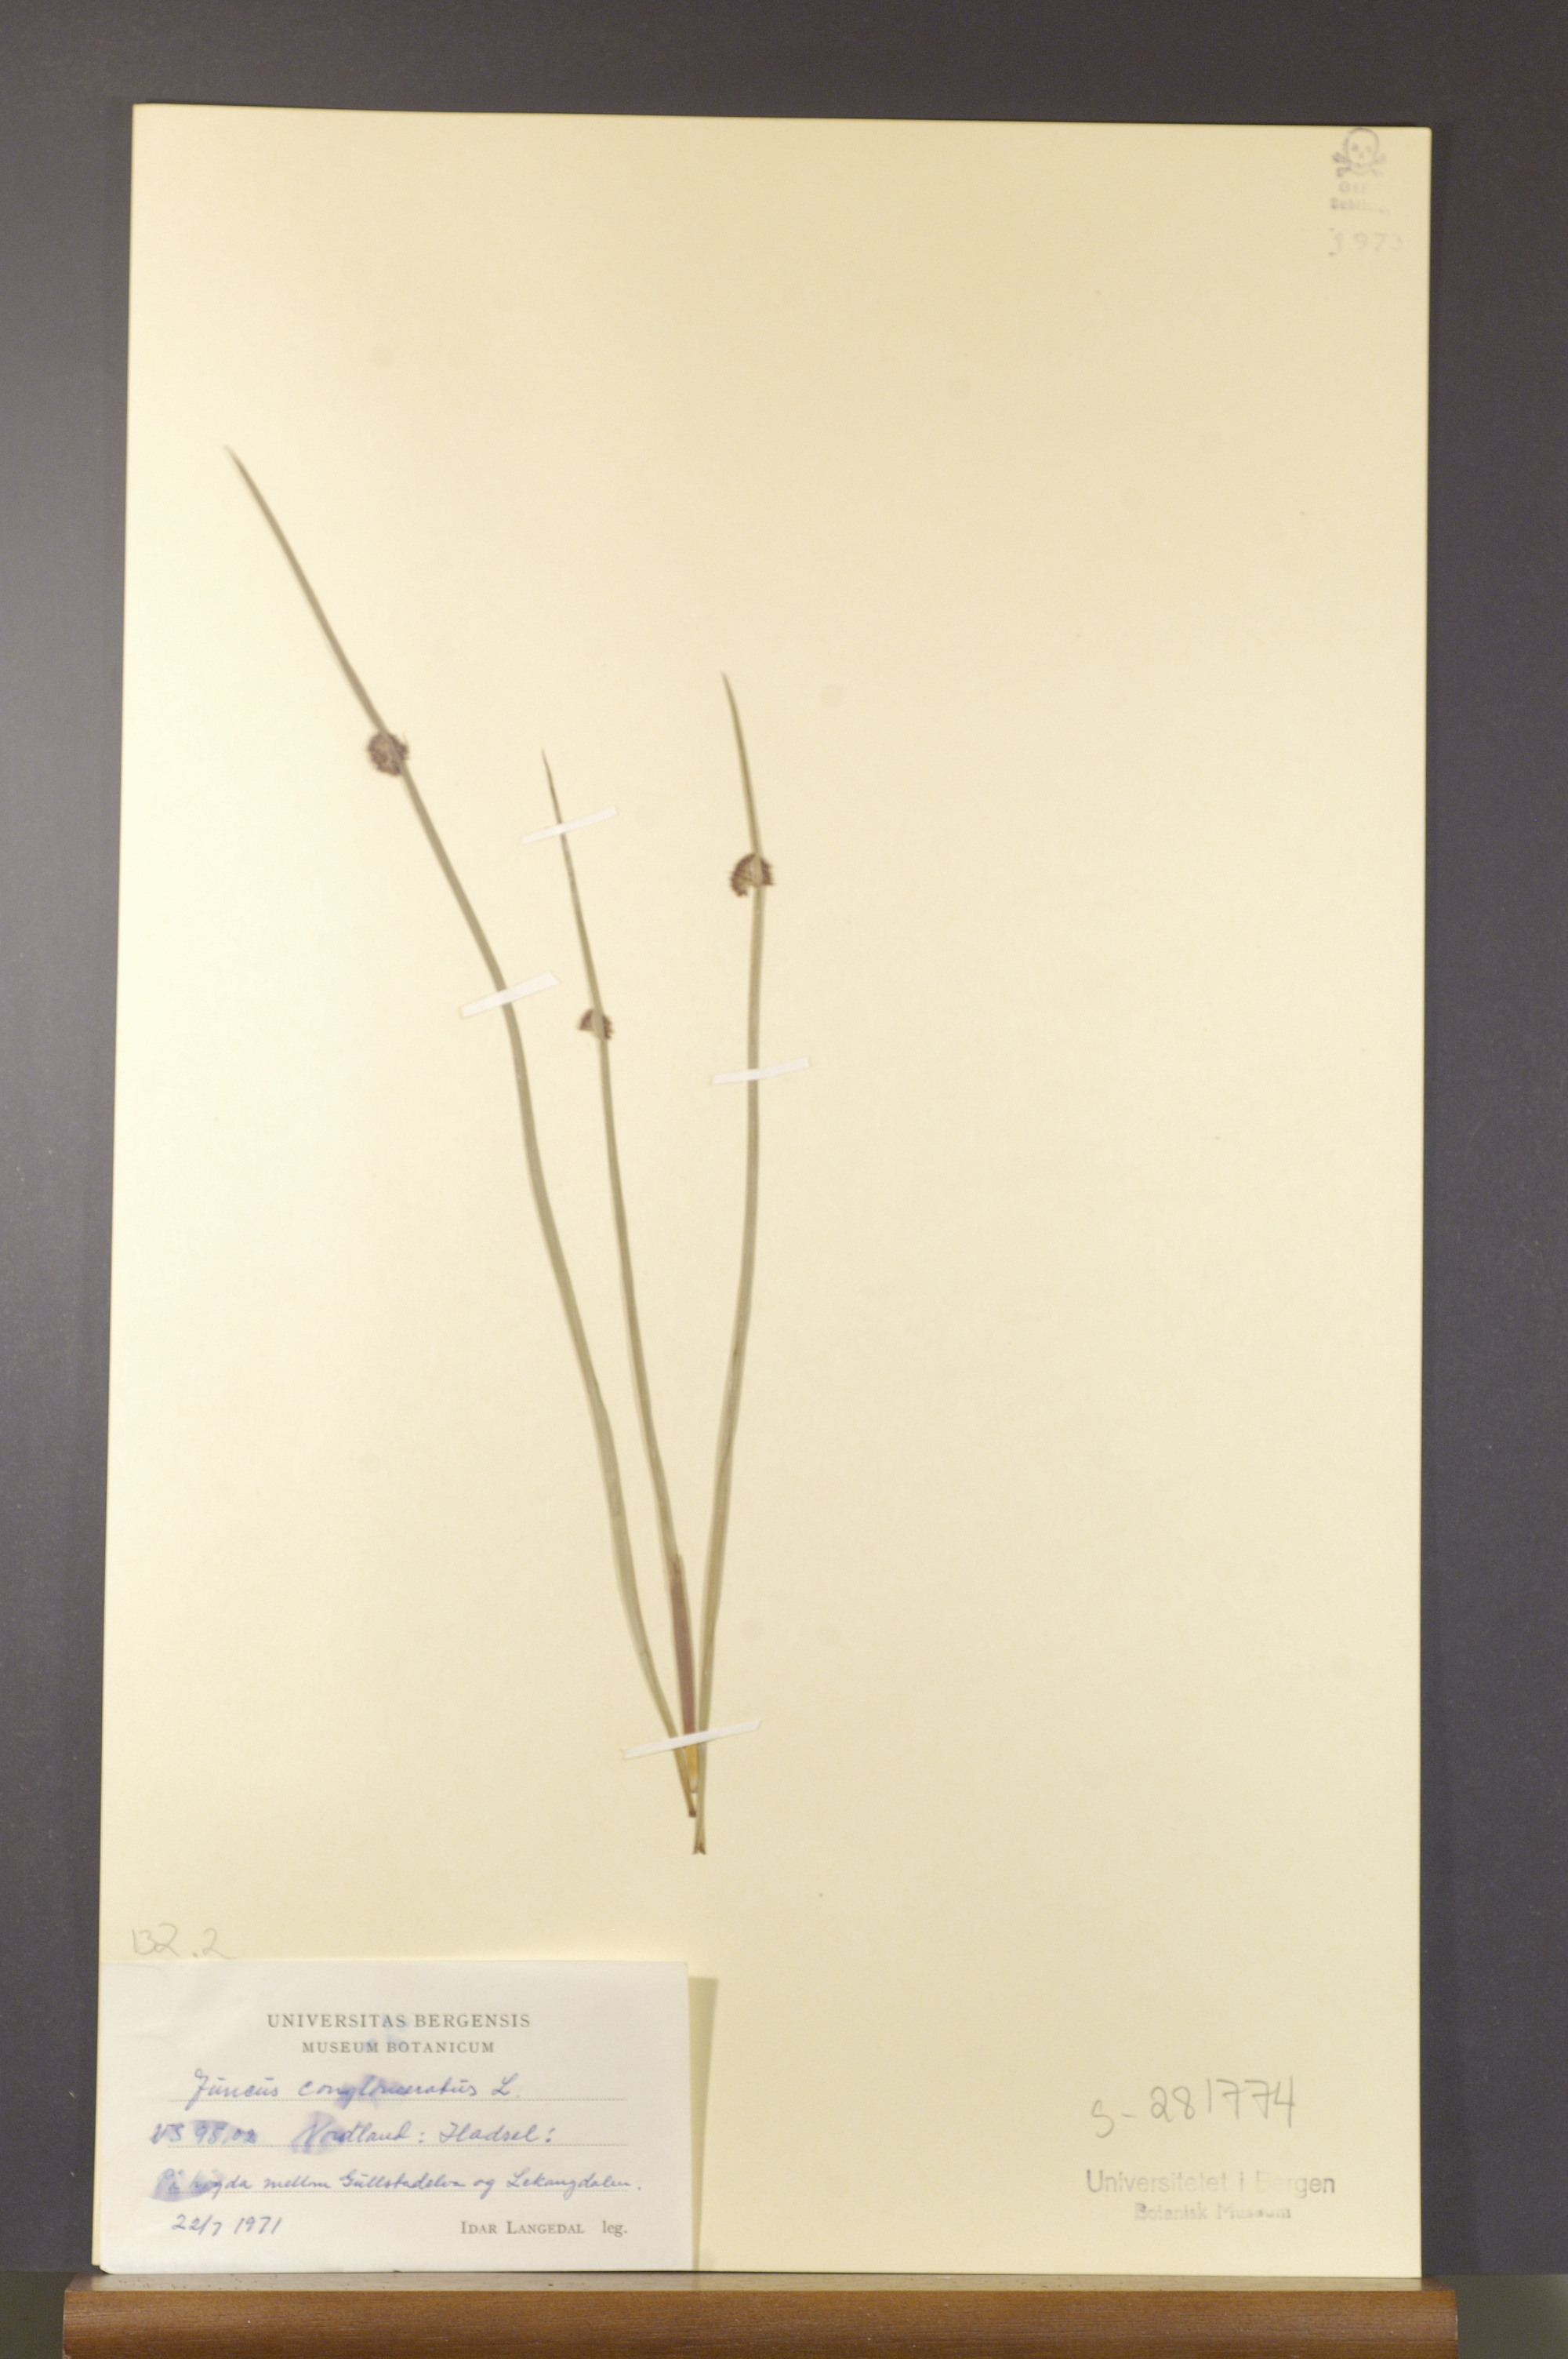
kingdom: Plantae
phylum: Tracheophyta
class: Liliopsida
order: Poales
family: Juncaceae
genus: Juncus
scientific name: Juncus conglomeratus
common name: Compact rush
